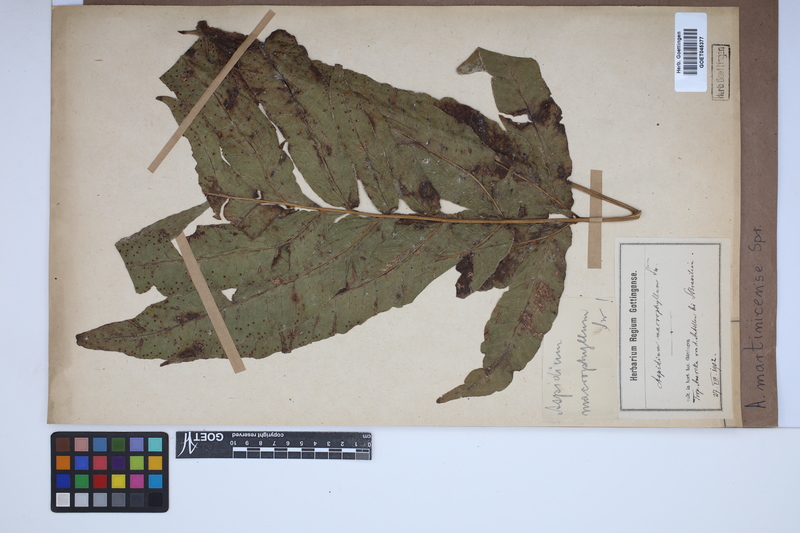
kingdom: Plantae
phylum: Tracheophyta
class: Polypodiopsida
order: Polypodiales
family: Tectariaceae
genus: Tectaria
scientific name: Tectaria incisa
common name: Incised halberd fern
